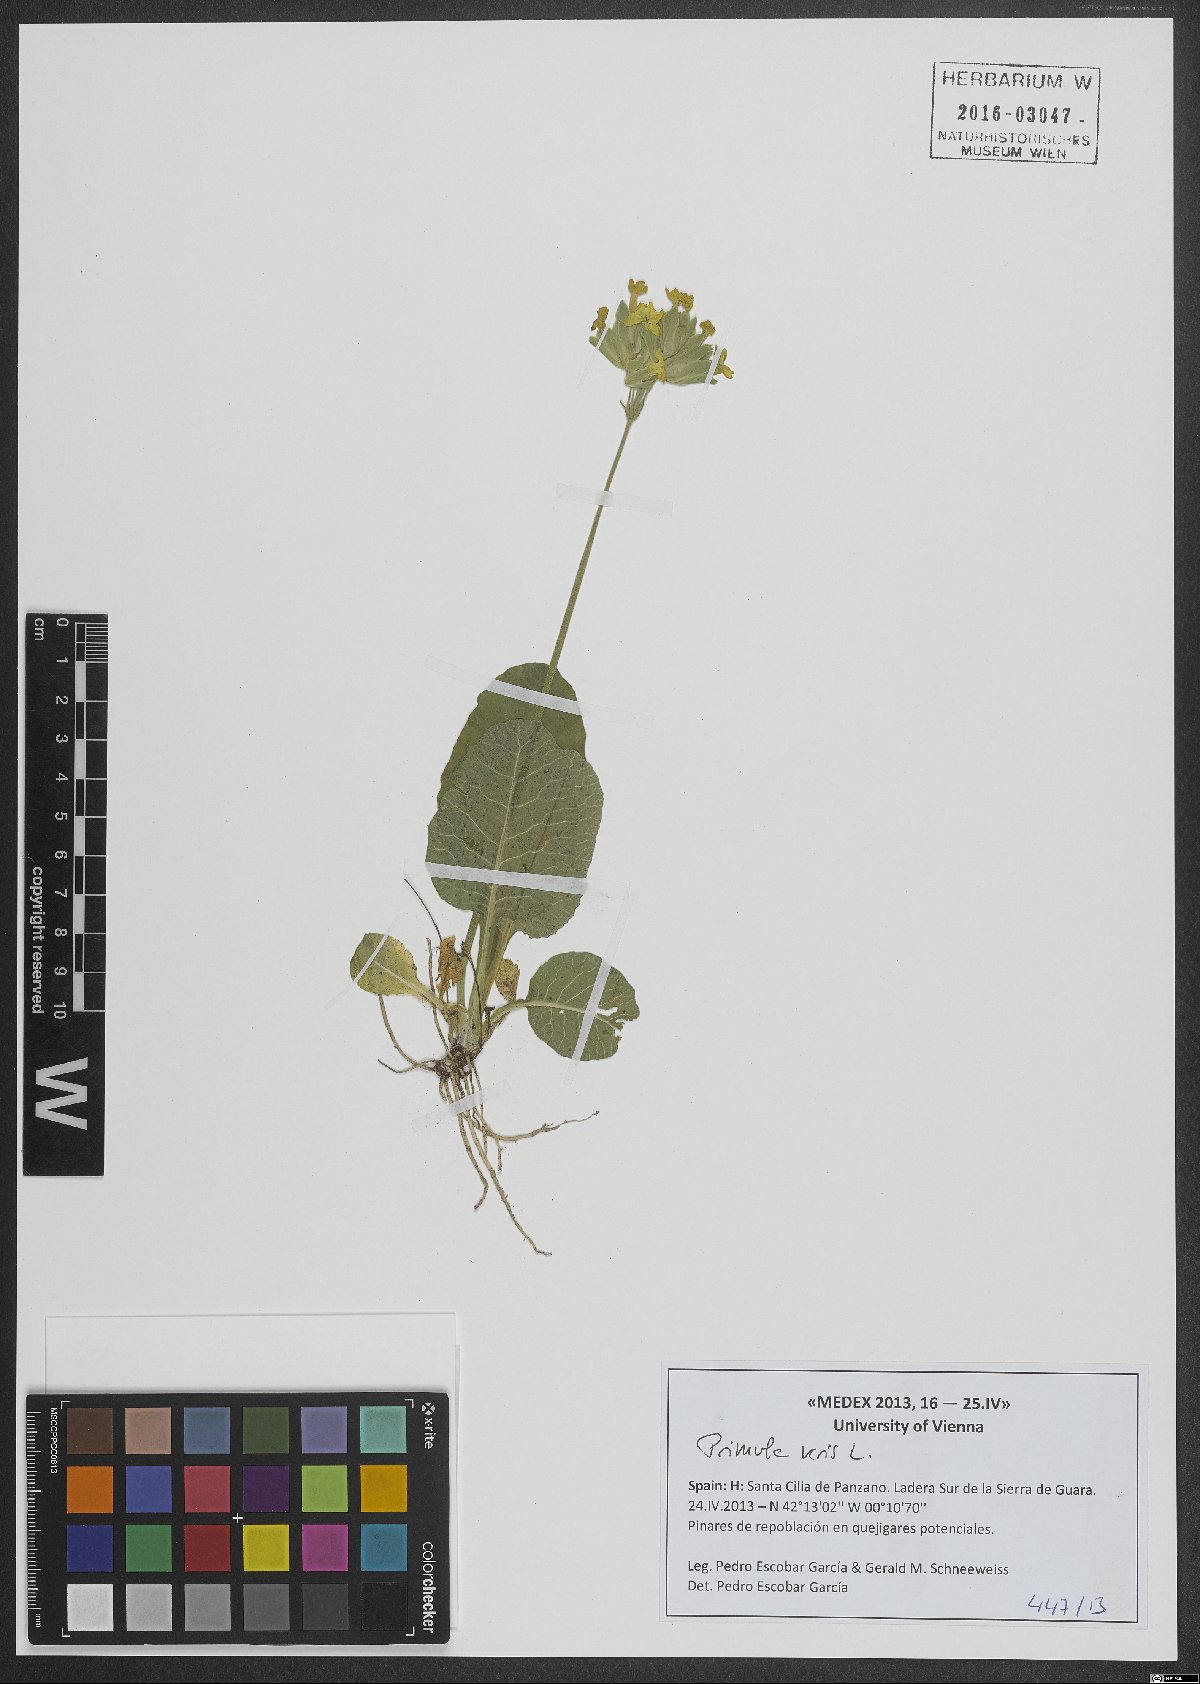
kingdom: Plantae
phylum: Tracheophyta
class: Magnoliopsida
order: Ericales
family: Primulaceae
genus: Primula
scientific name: Primula veris
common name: Cowslip
